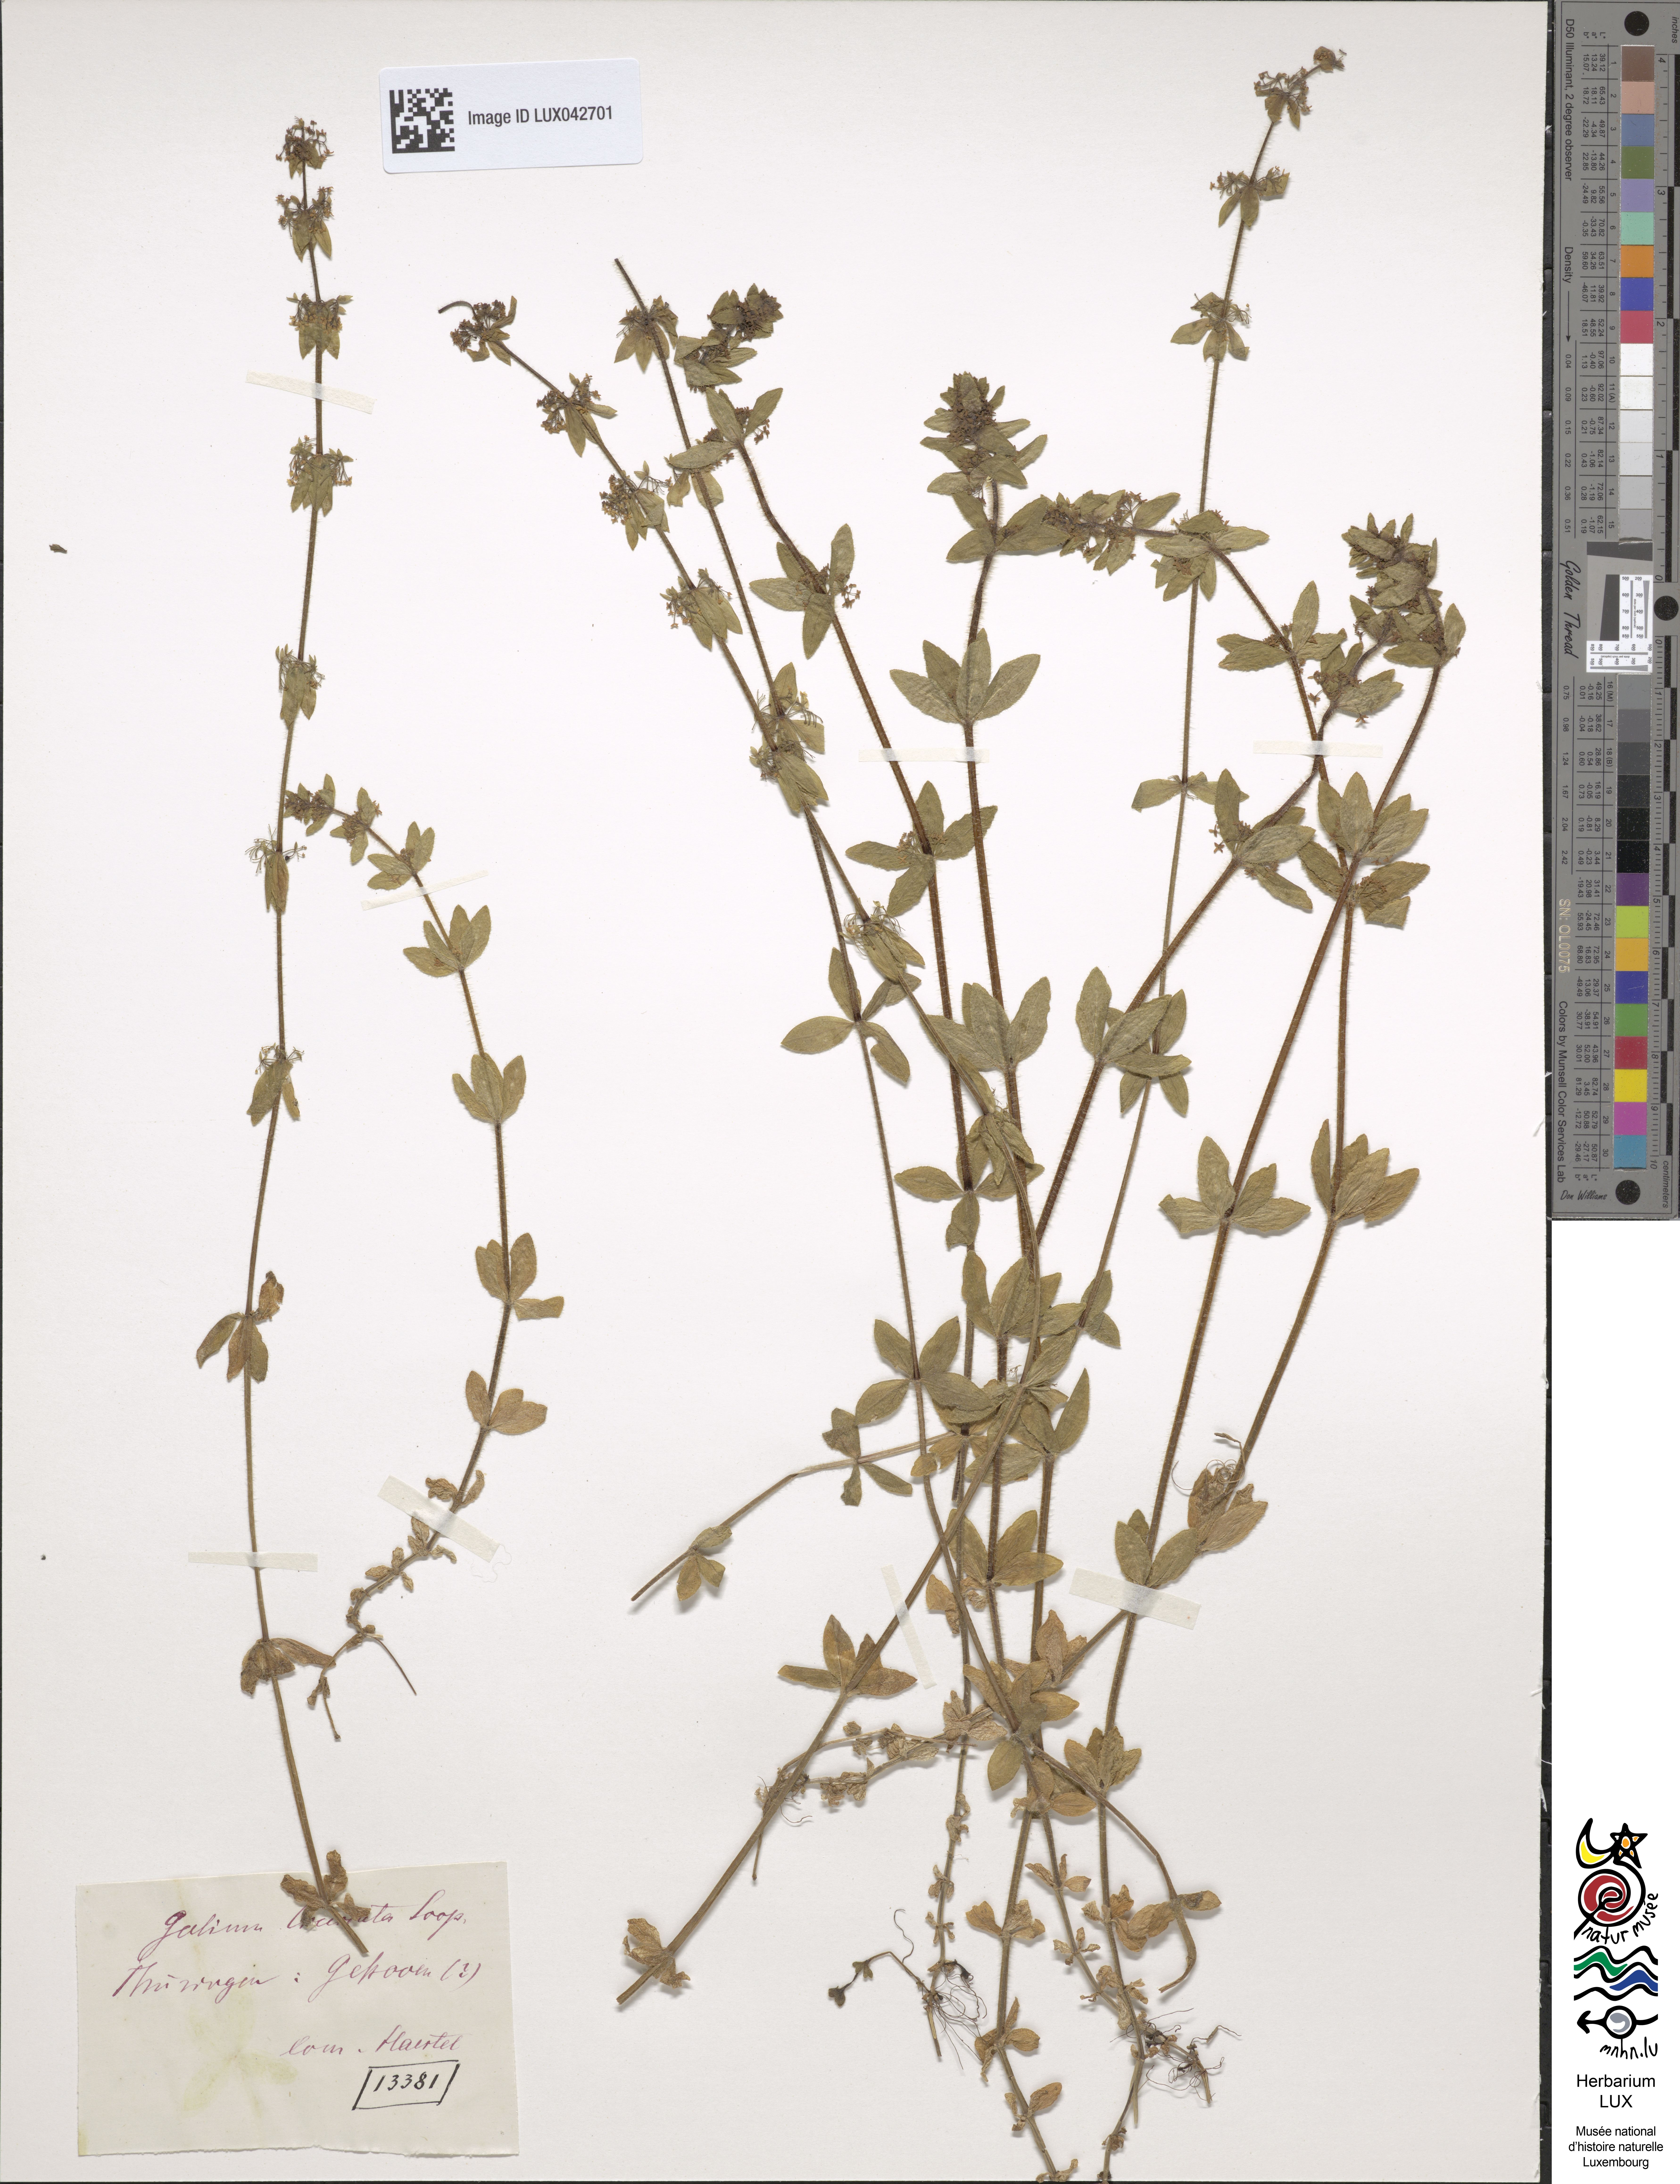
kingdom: Plantae
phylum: Tracheophyta
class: Magnoliopsida
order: Gentianales
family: Rubiaceae
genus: Cruciata
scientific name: Cruciata laevipes
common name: Crosswort
